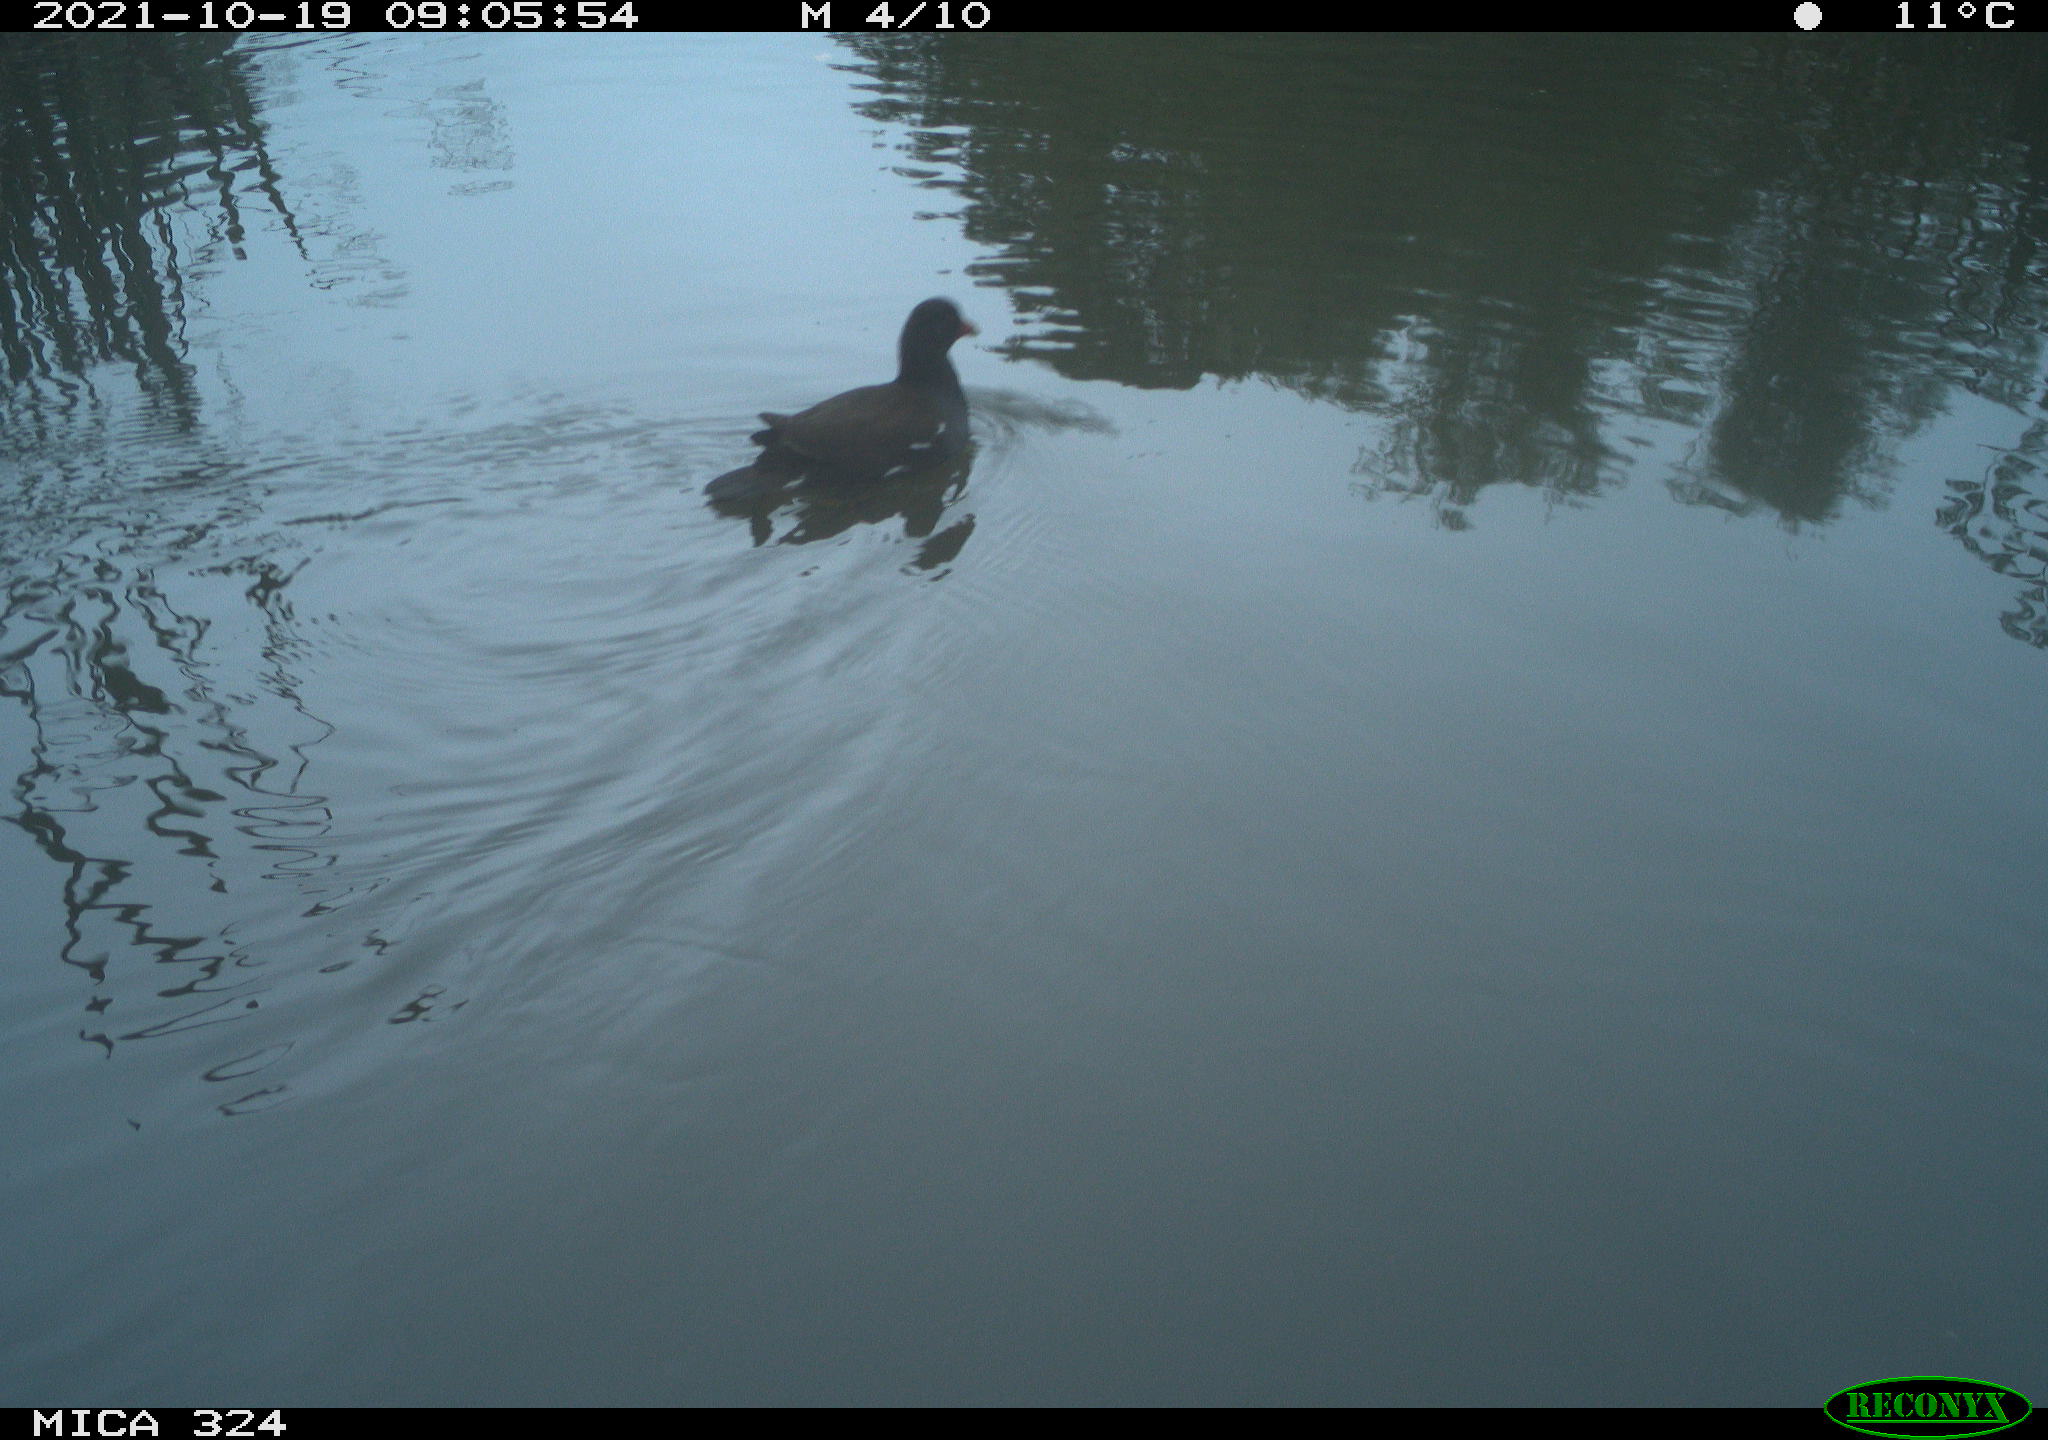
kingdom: Animalia
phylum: Chordata
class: Aves
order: Gruiformes
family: Rallidae
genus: Gallinula
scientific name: Gallinula chloropus
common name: Common moorhen
